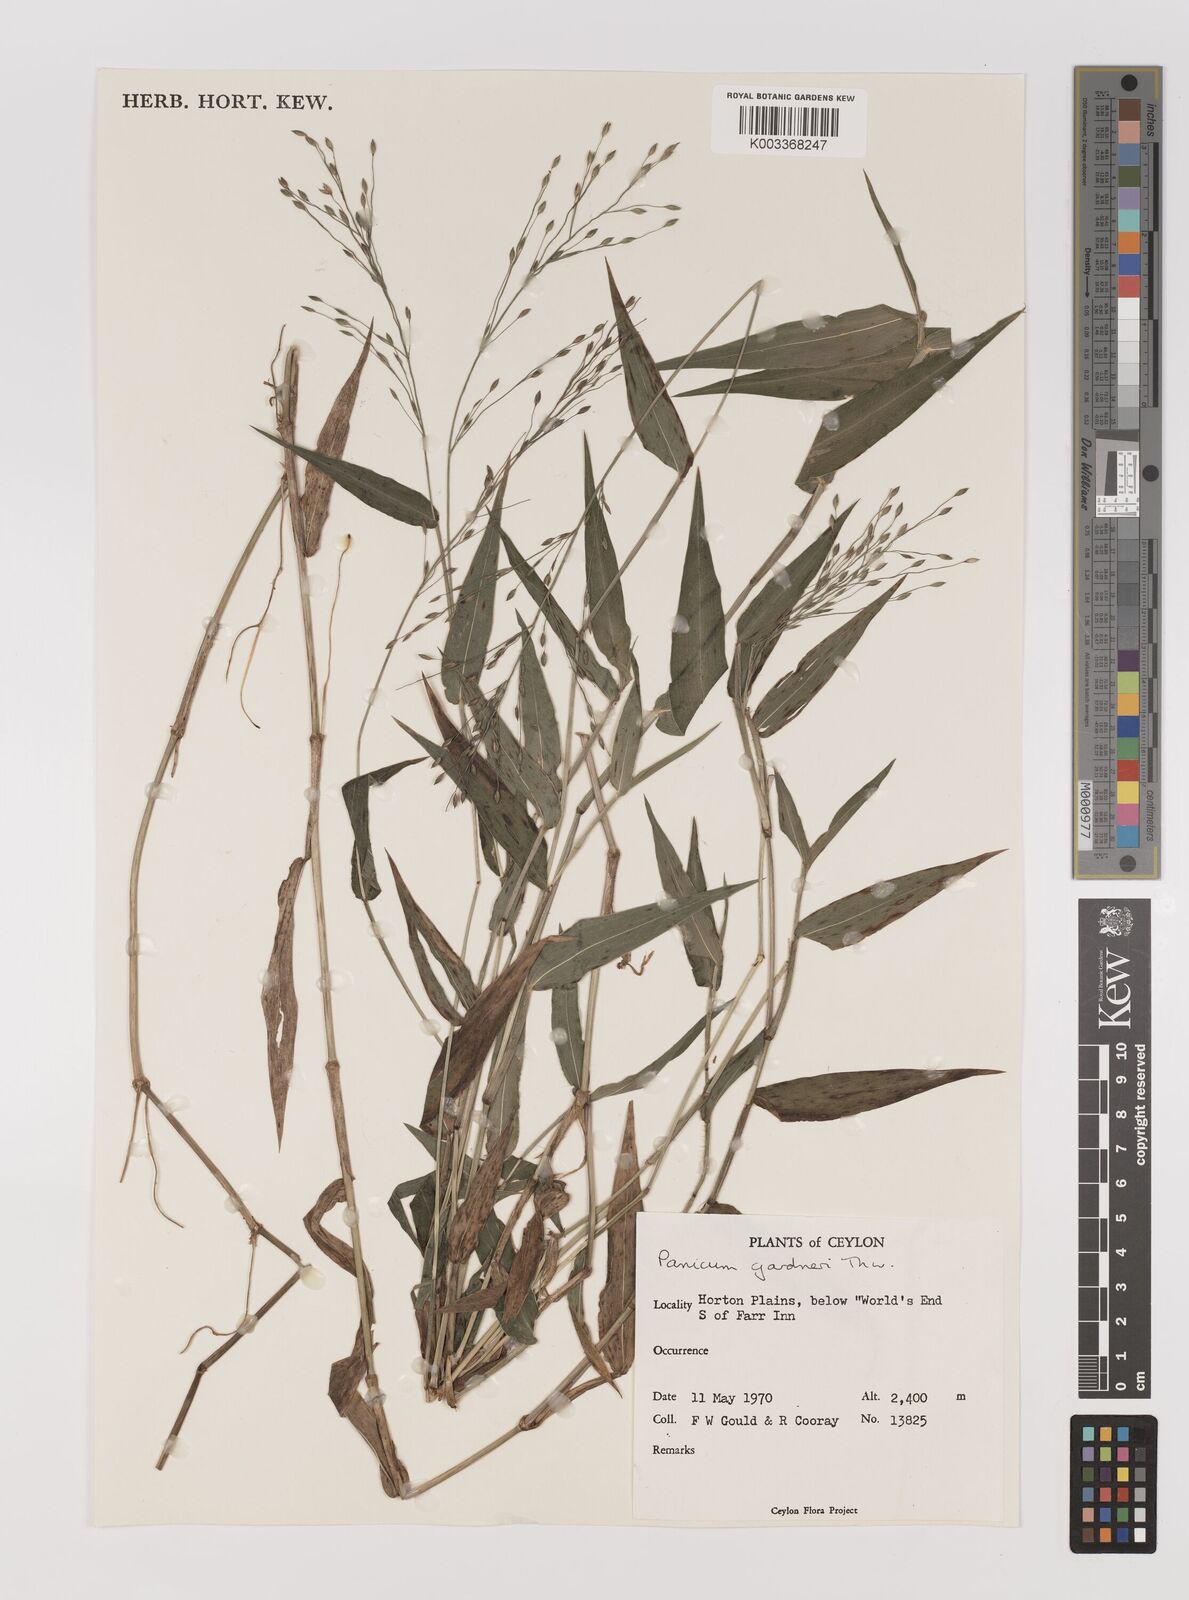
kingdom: Plantae
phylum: Tracheophyta
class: Liliopsida
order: Poales
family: Poaceae
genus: Panicum
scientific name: Panicum gardneri
